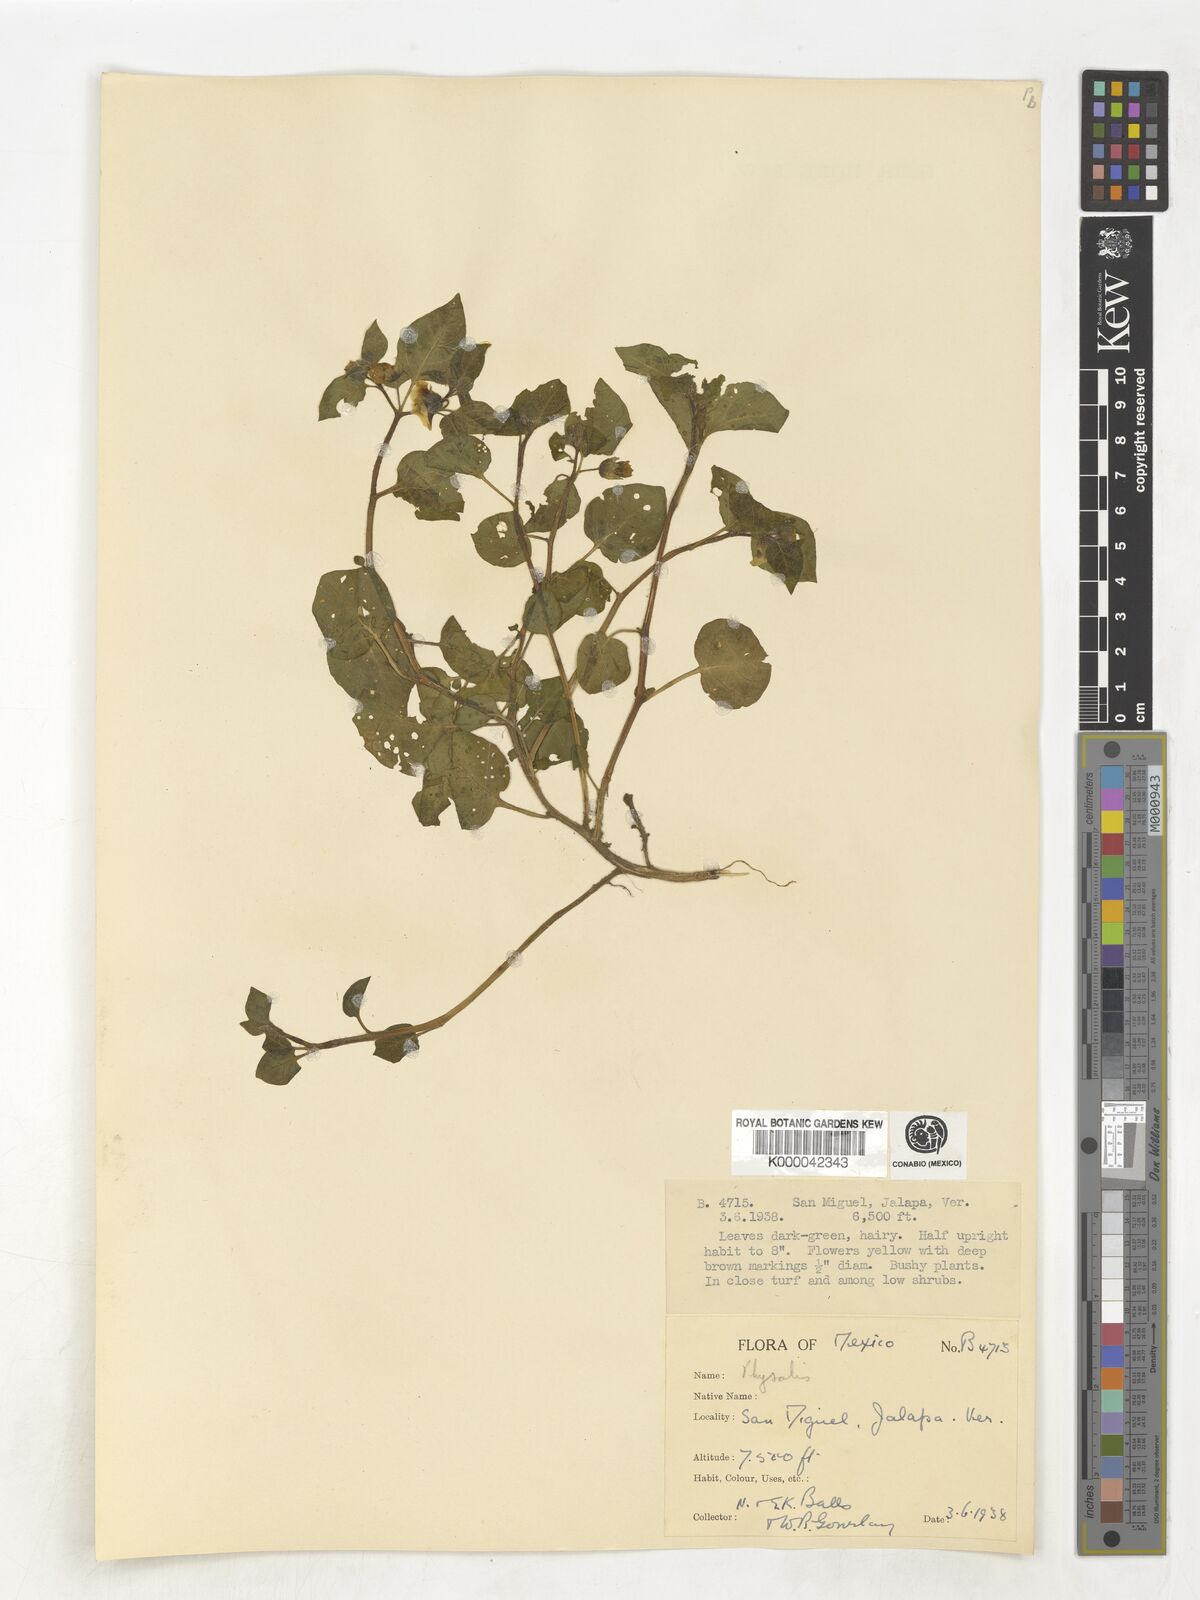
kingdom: Plantae
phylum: Tracheophyta
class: Magnoliopsida
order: Solanales
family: Solanaceae
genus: Physalis
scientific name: Physalis
